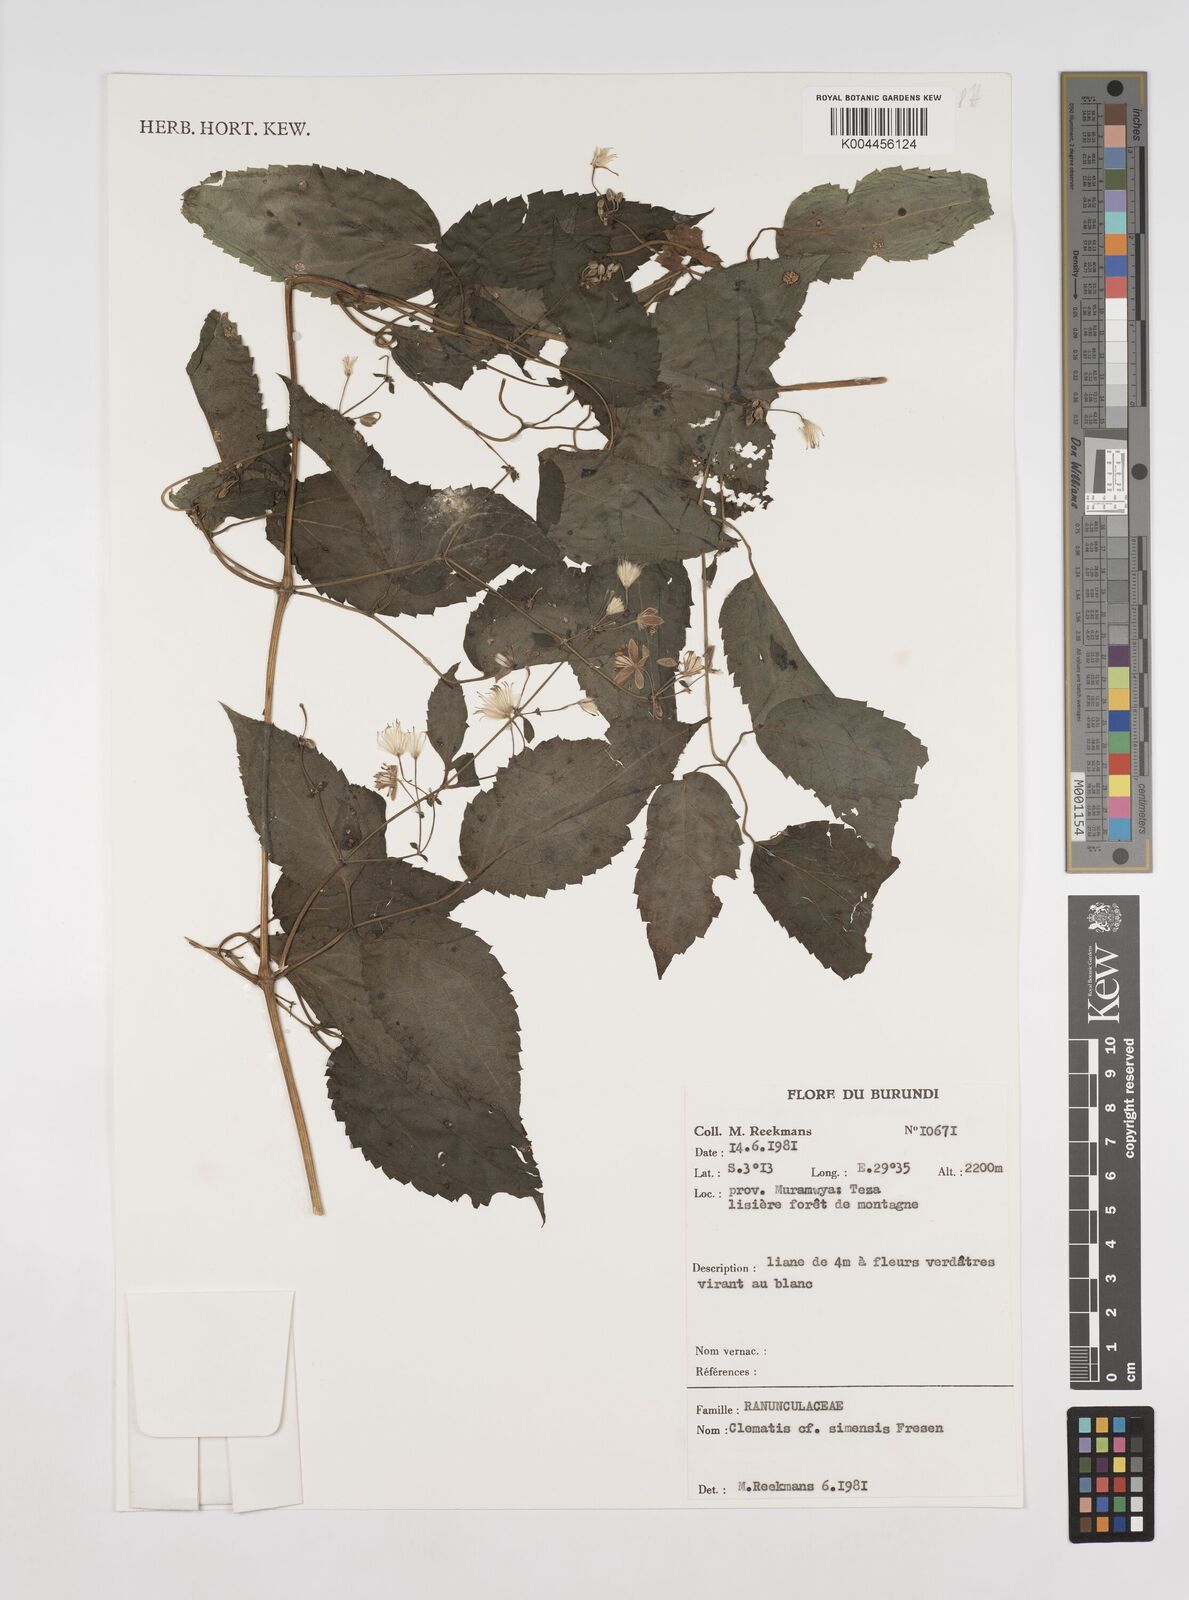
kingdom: Plantae
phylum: Tracheophyta
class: Magnoliopsida
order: Ranunculales
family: Ranunculaceae
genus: Clematis
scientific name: Clematis simensis
